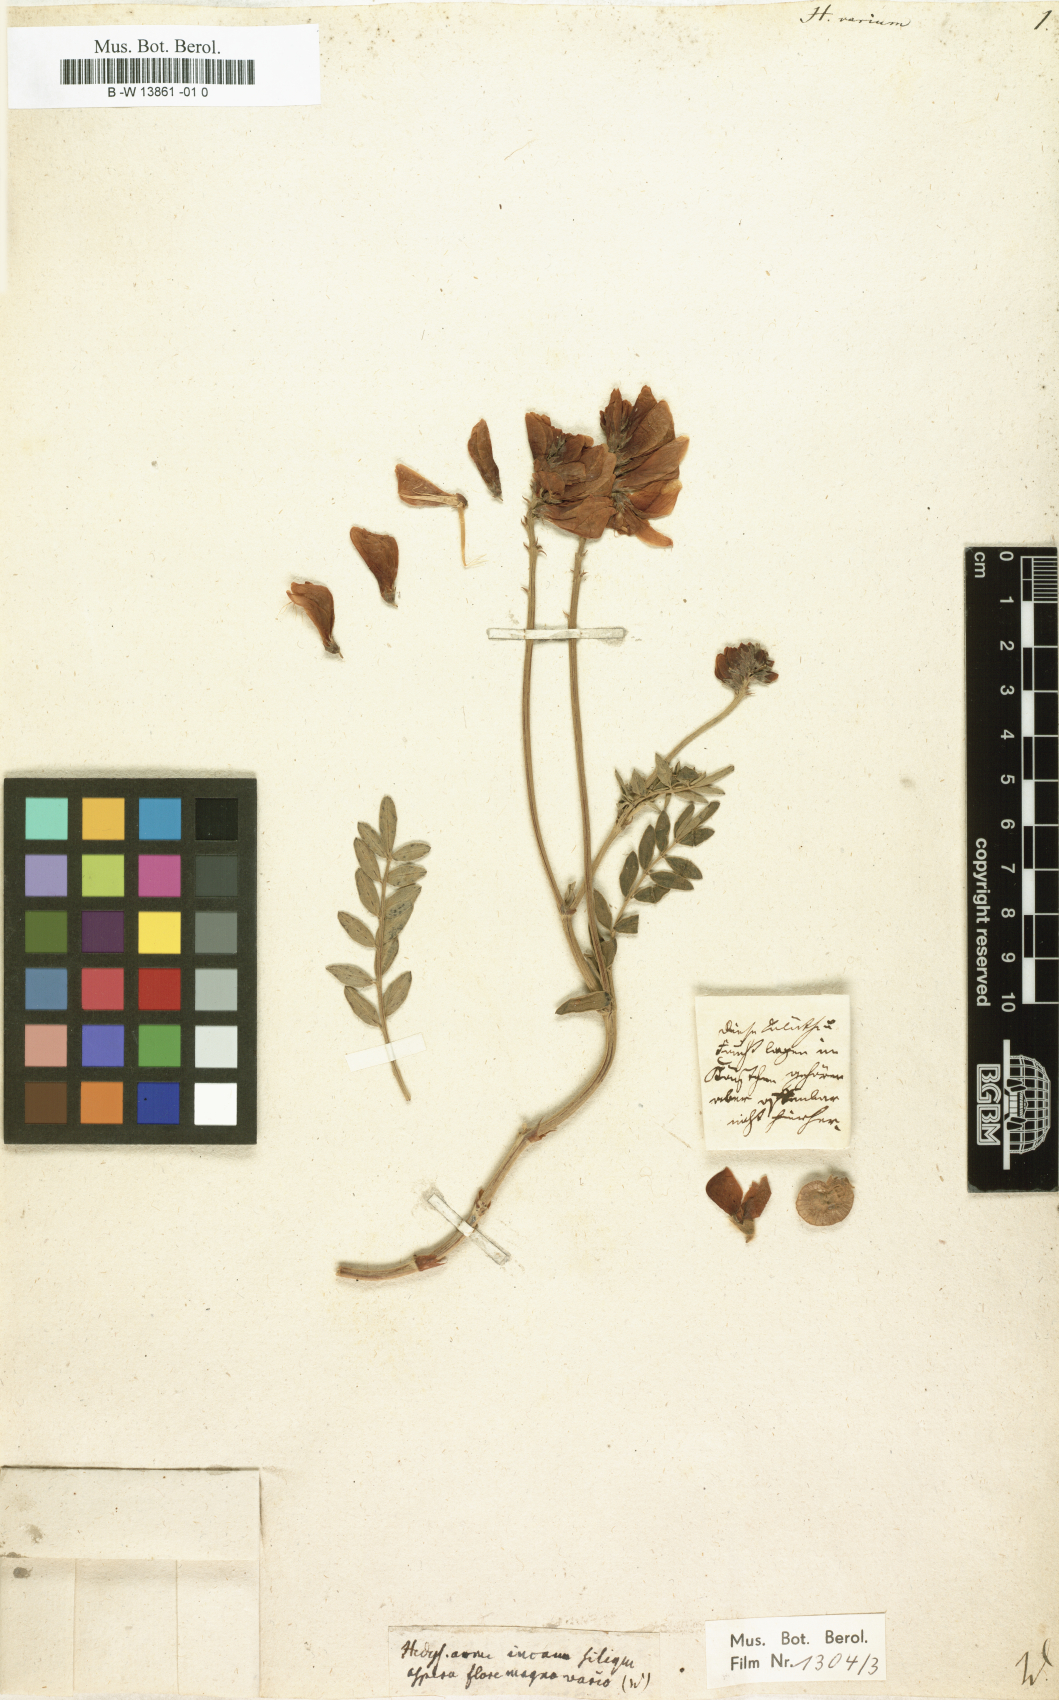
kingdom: Plantae
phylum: Tracheophyta
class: Magnoliopsida
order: Fabales
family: Fabaceae
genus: Hedysarum
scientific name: Hedysarum varium
